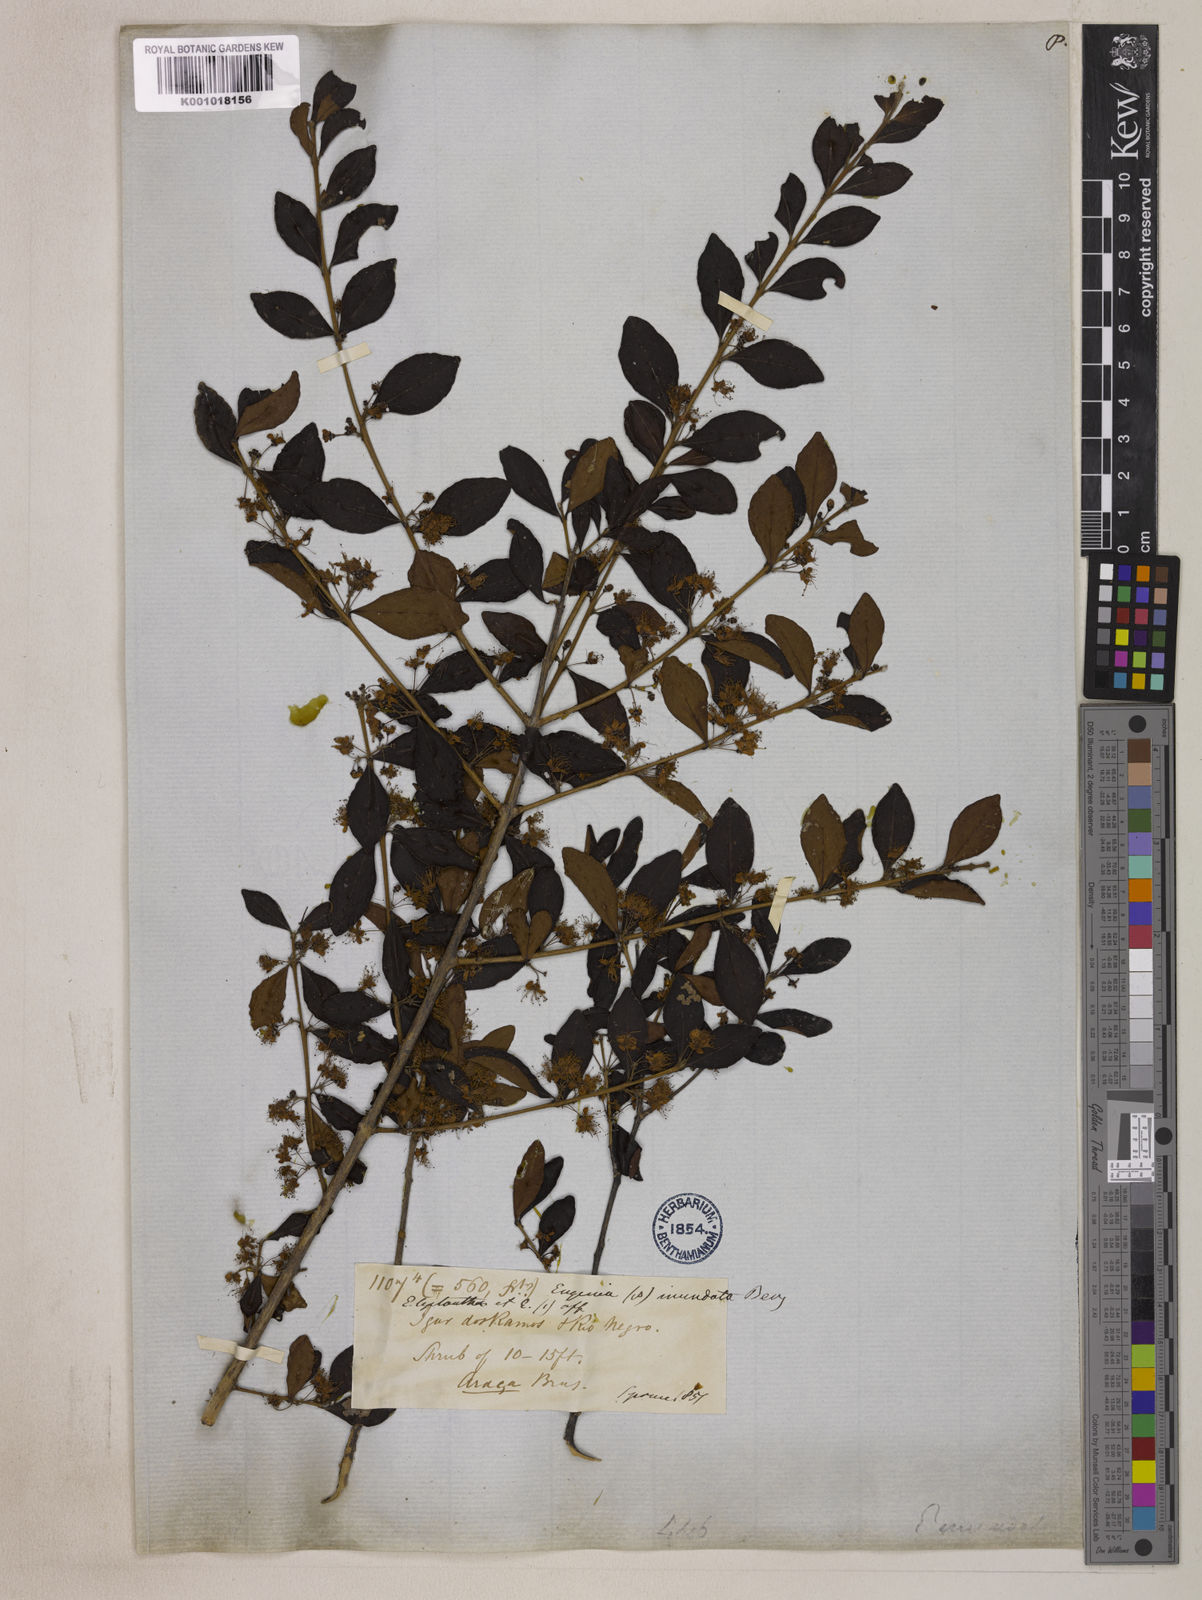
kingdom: Plantae
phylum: Tracheophyta
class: Magnoliopsida
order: Myrtales
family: Myrtaceae
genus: Eugenia
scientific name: Eugenia inundata
